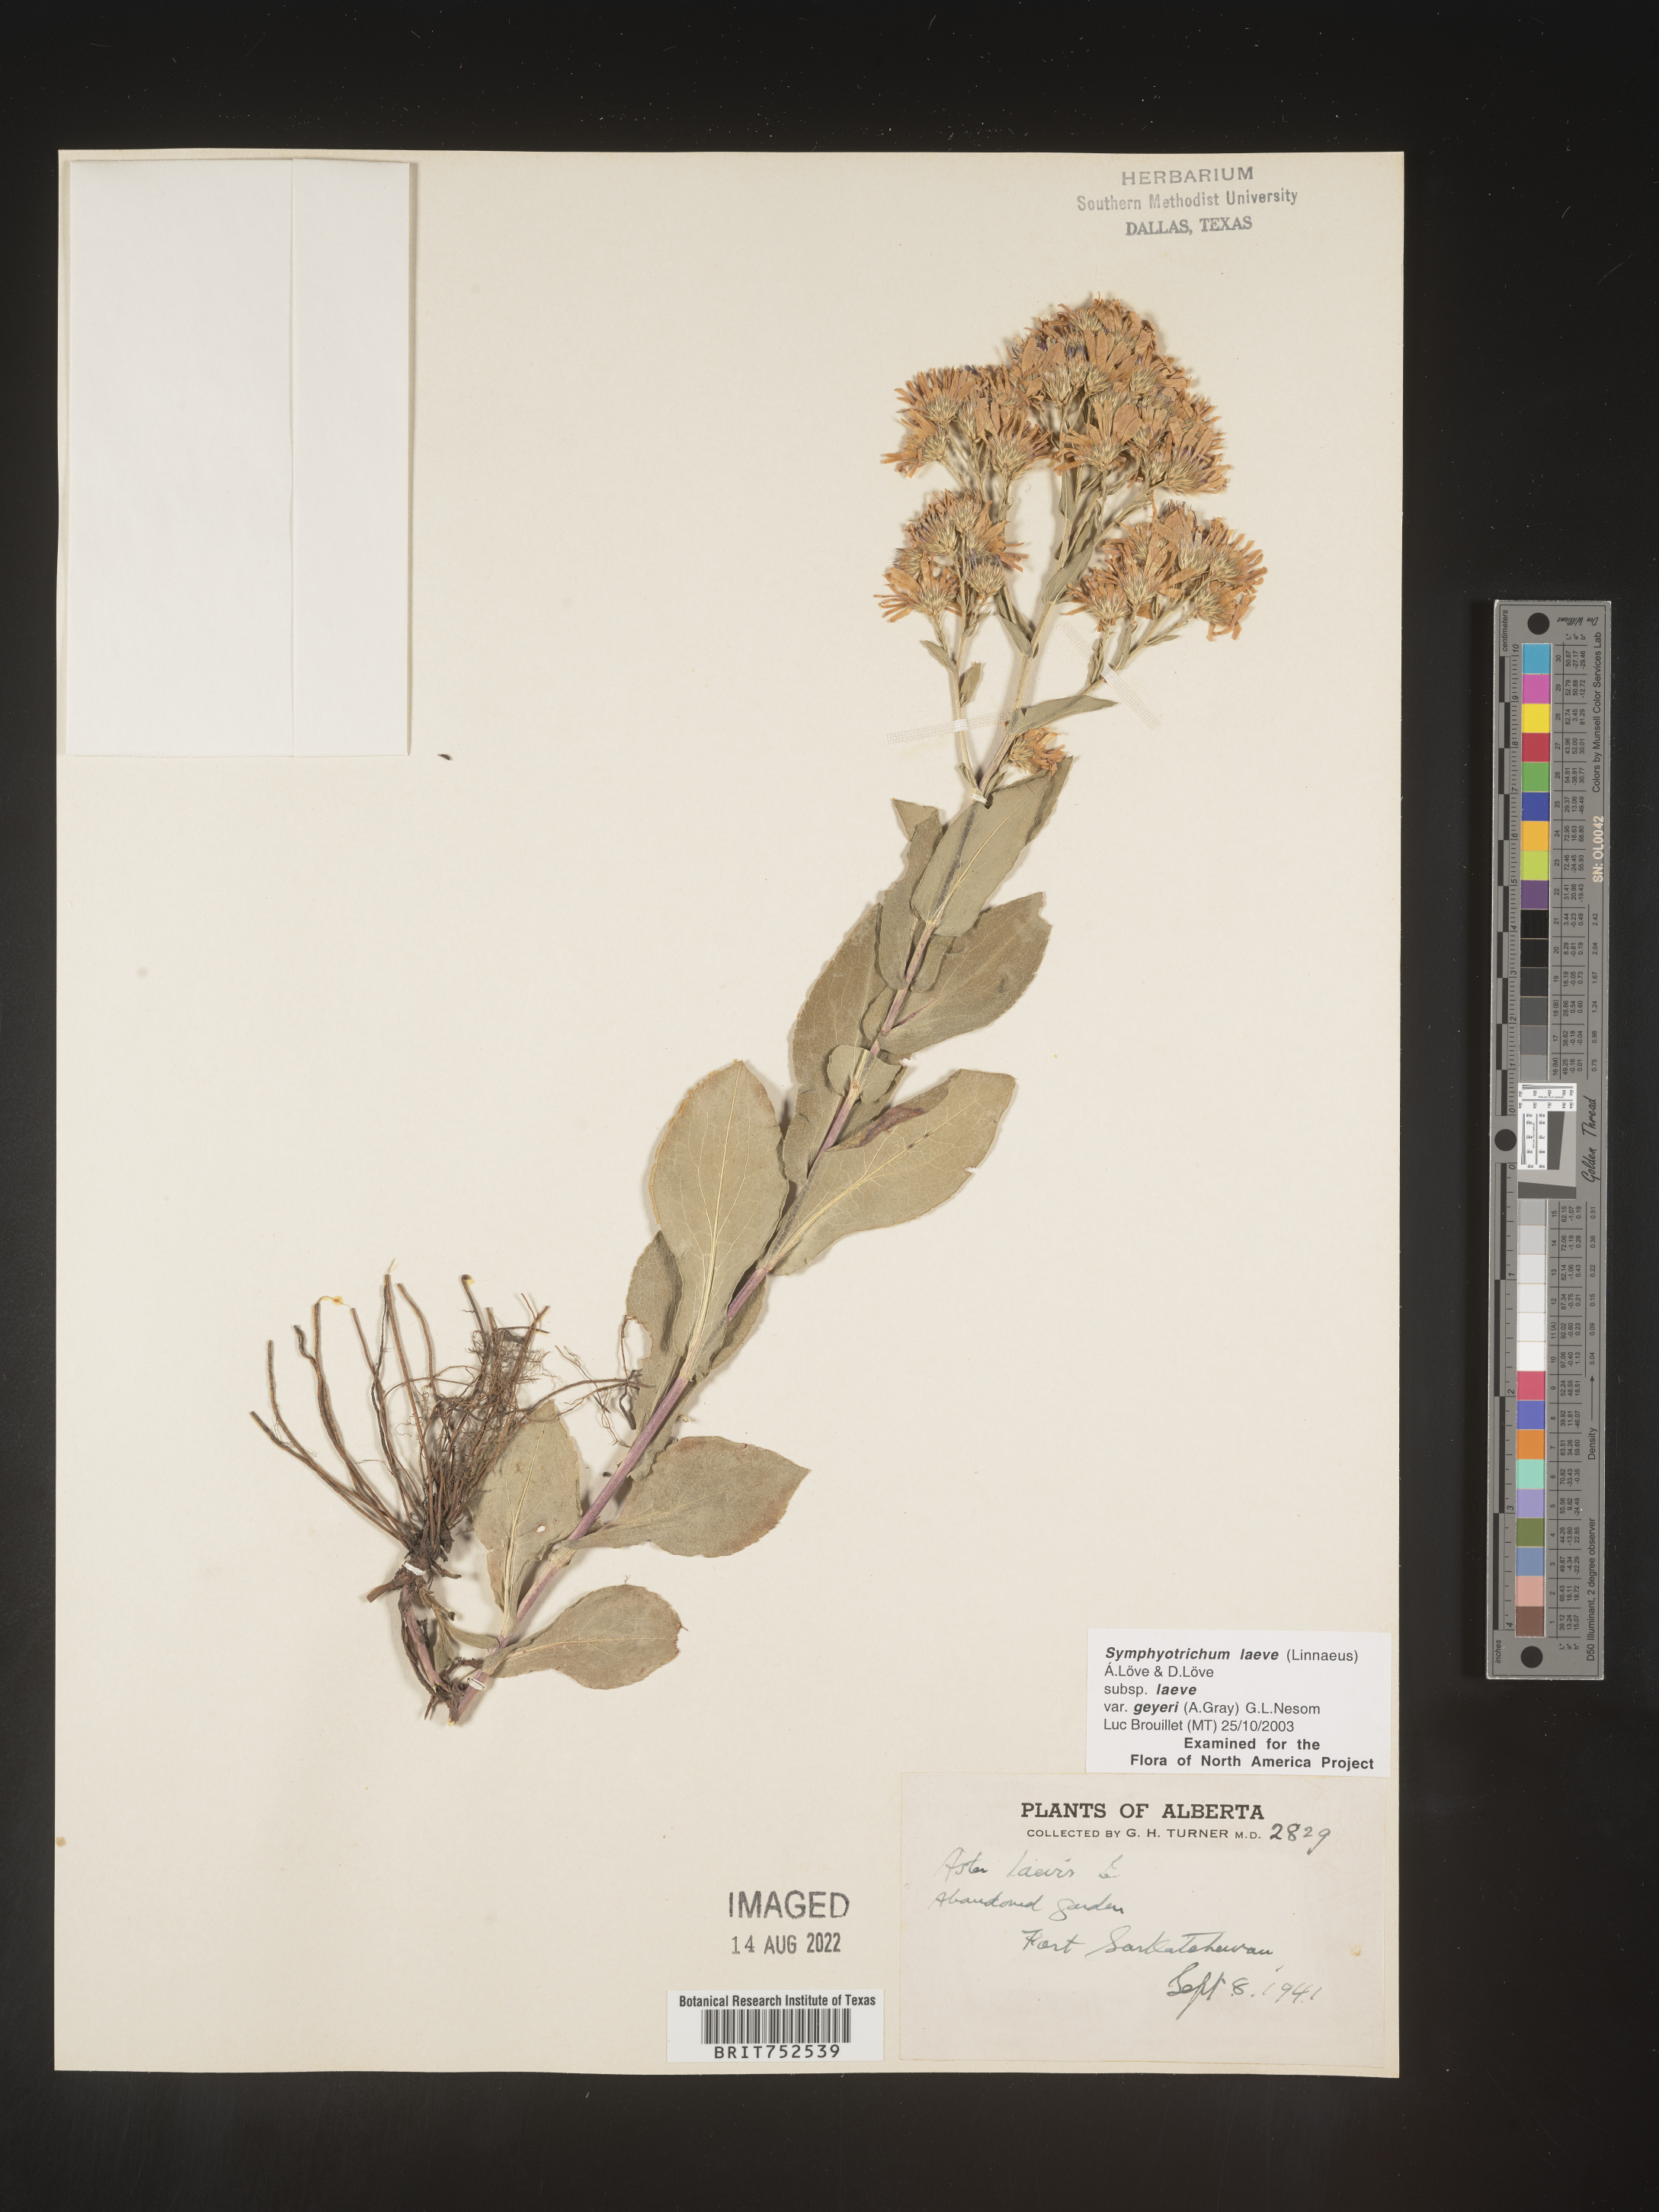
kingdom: Plantae
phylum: Tracheophyta
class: Magnoliopsida
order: Asterales
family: Asteraceae
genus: Symphyotrichum
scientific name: Symphyotrichum laeve
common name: Glaucous aster
